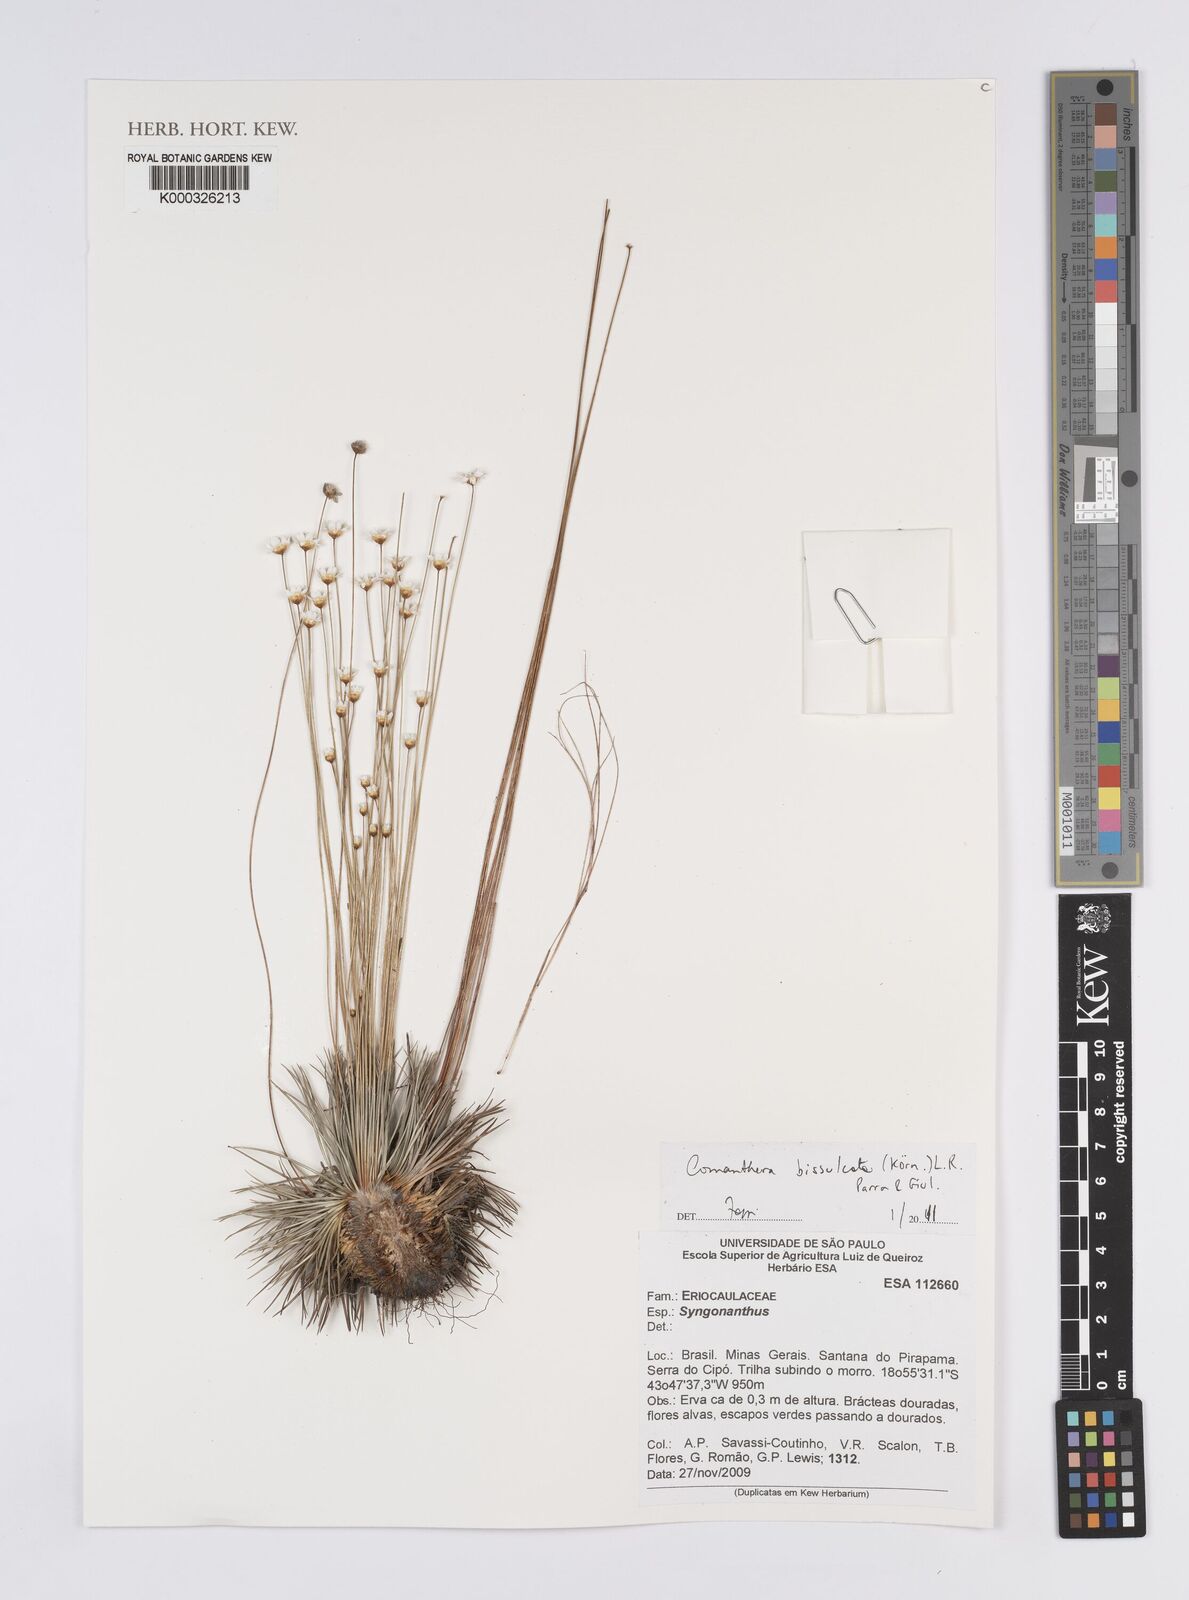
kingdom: Plantae
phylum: Tracheophyta
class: Liliopsida
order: Poales
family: Eriocaulaceae
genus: Comanthera
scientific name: Comanthera bisulcata
